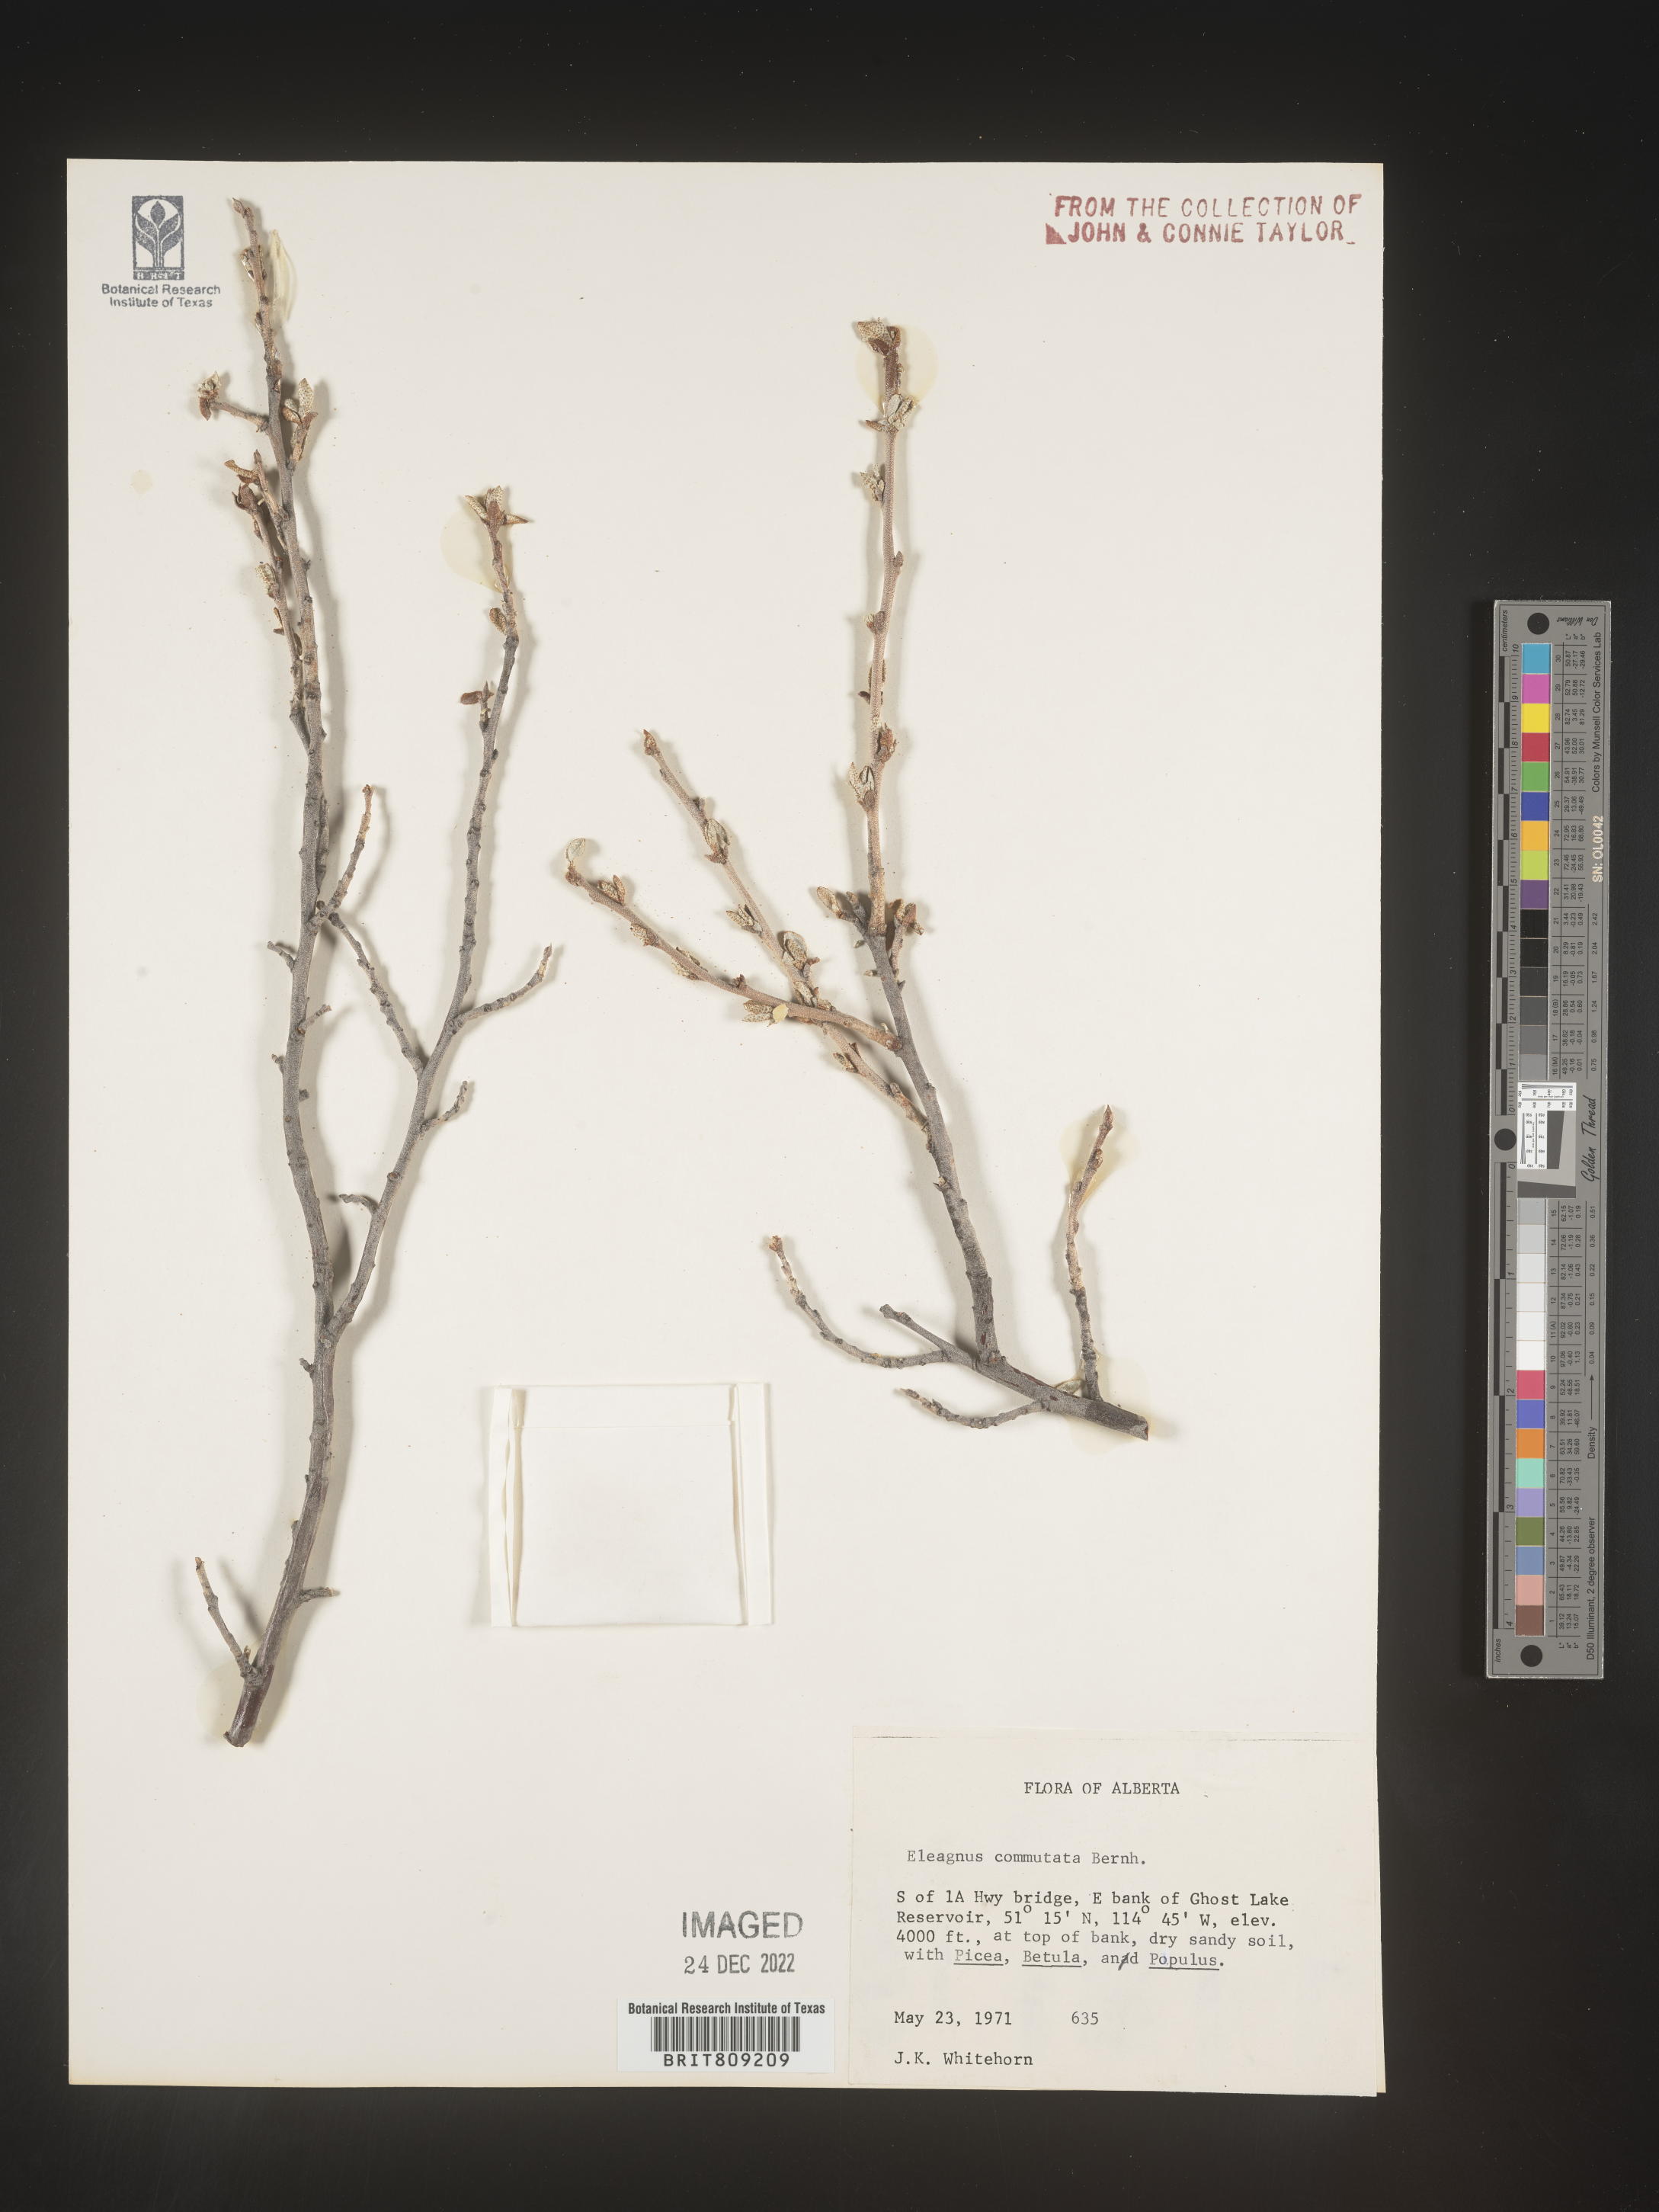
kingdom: Plantae
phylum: Tracheophyta
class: Magnoliopsida
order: Rosales
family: Elaeagnaceae
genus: Elaeagnus
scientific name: Elaeagnus
